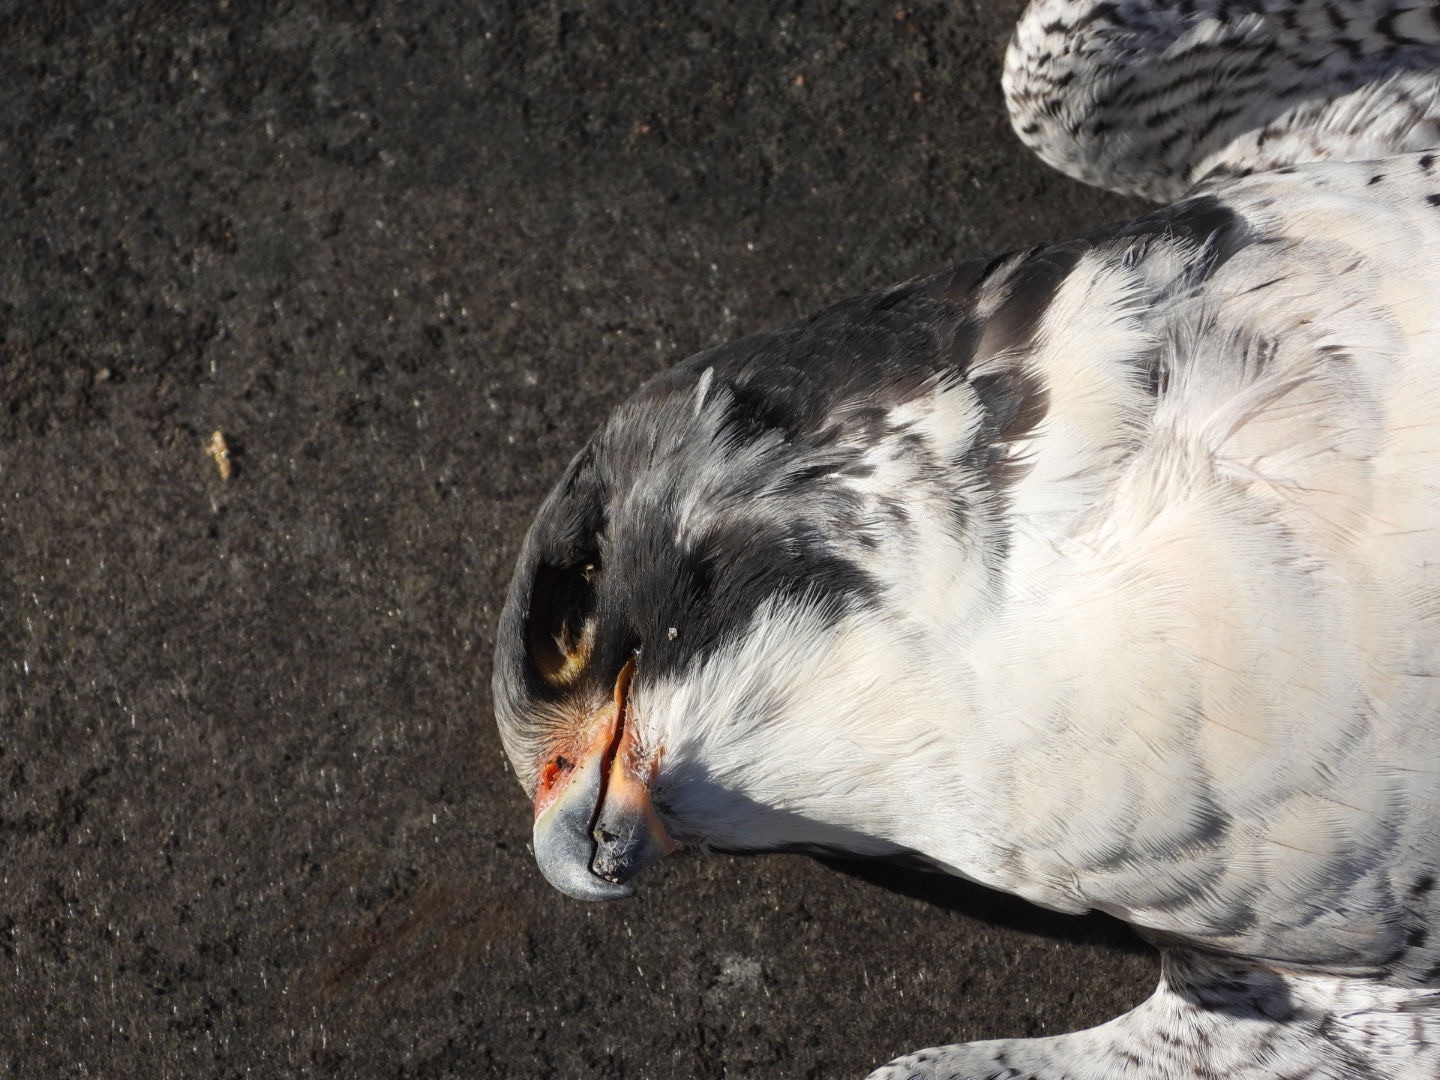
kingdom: Animalia
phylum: Chordata
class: Aves
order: Falconiformes
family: Falconidae
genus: Falco
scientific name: Falco peregrinus
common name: Vandrefalk
